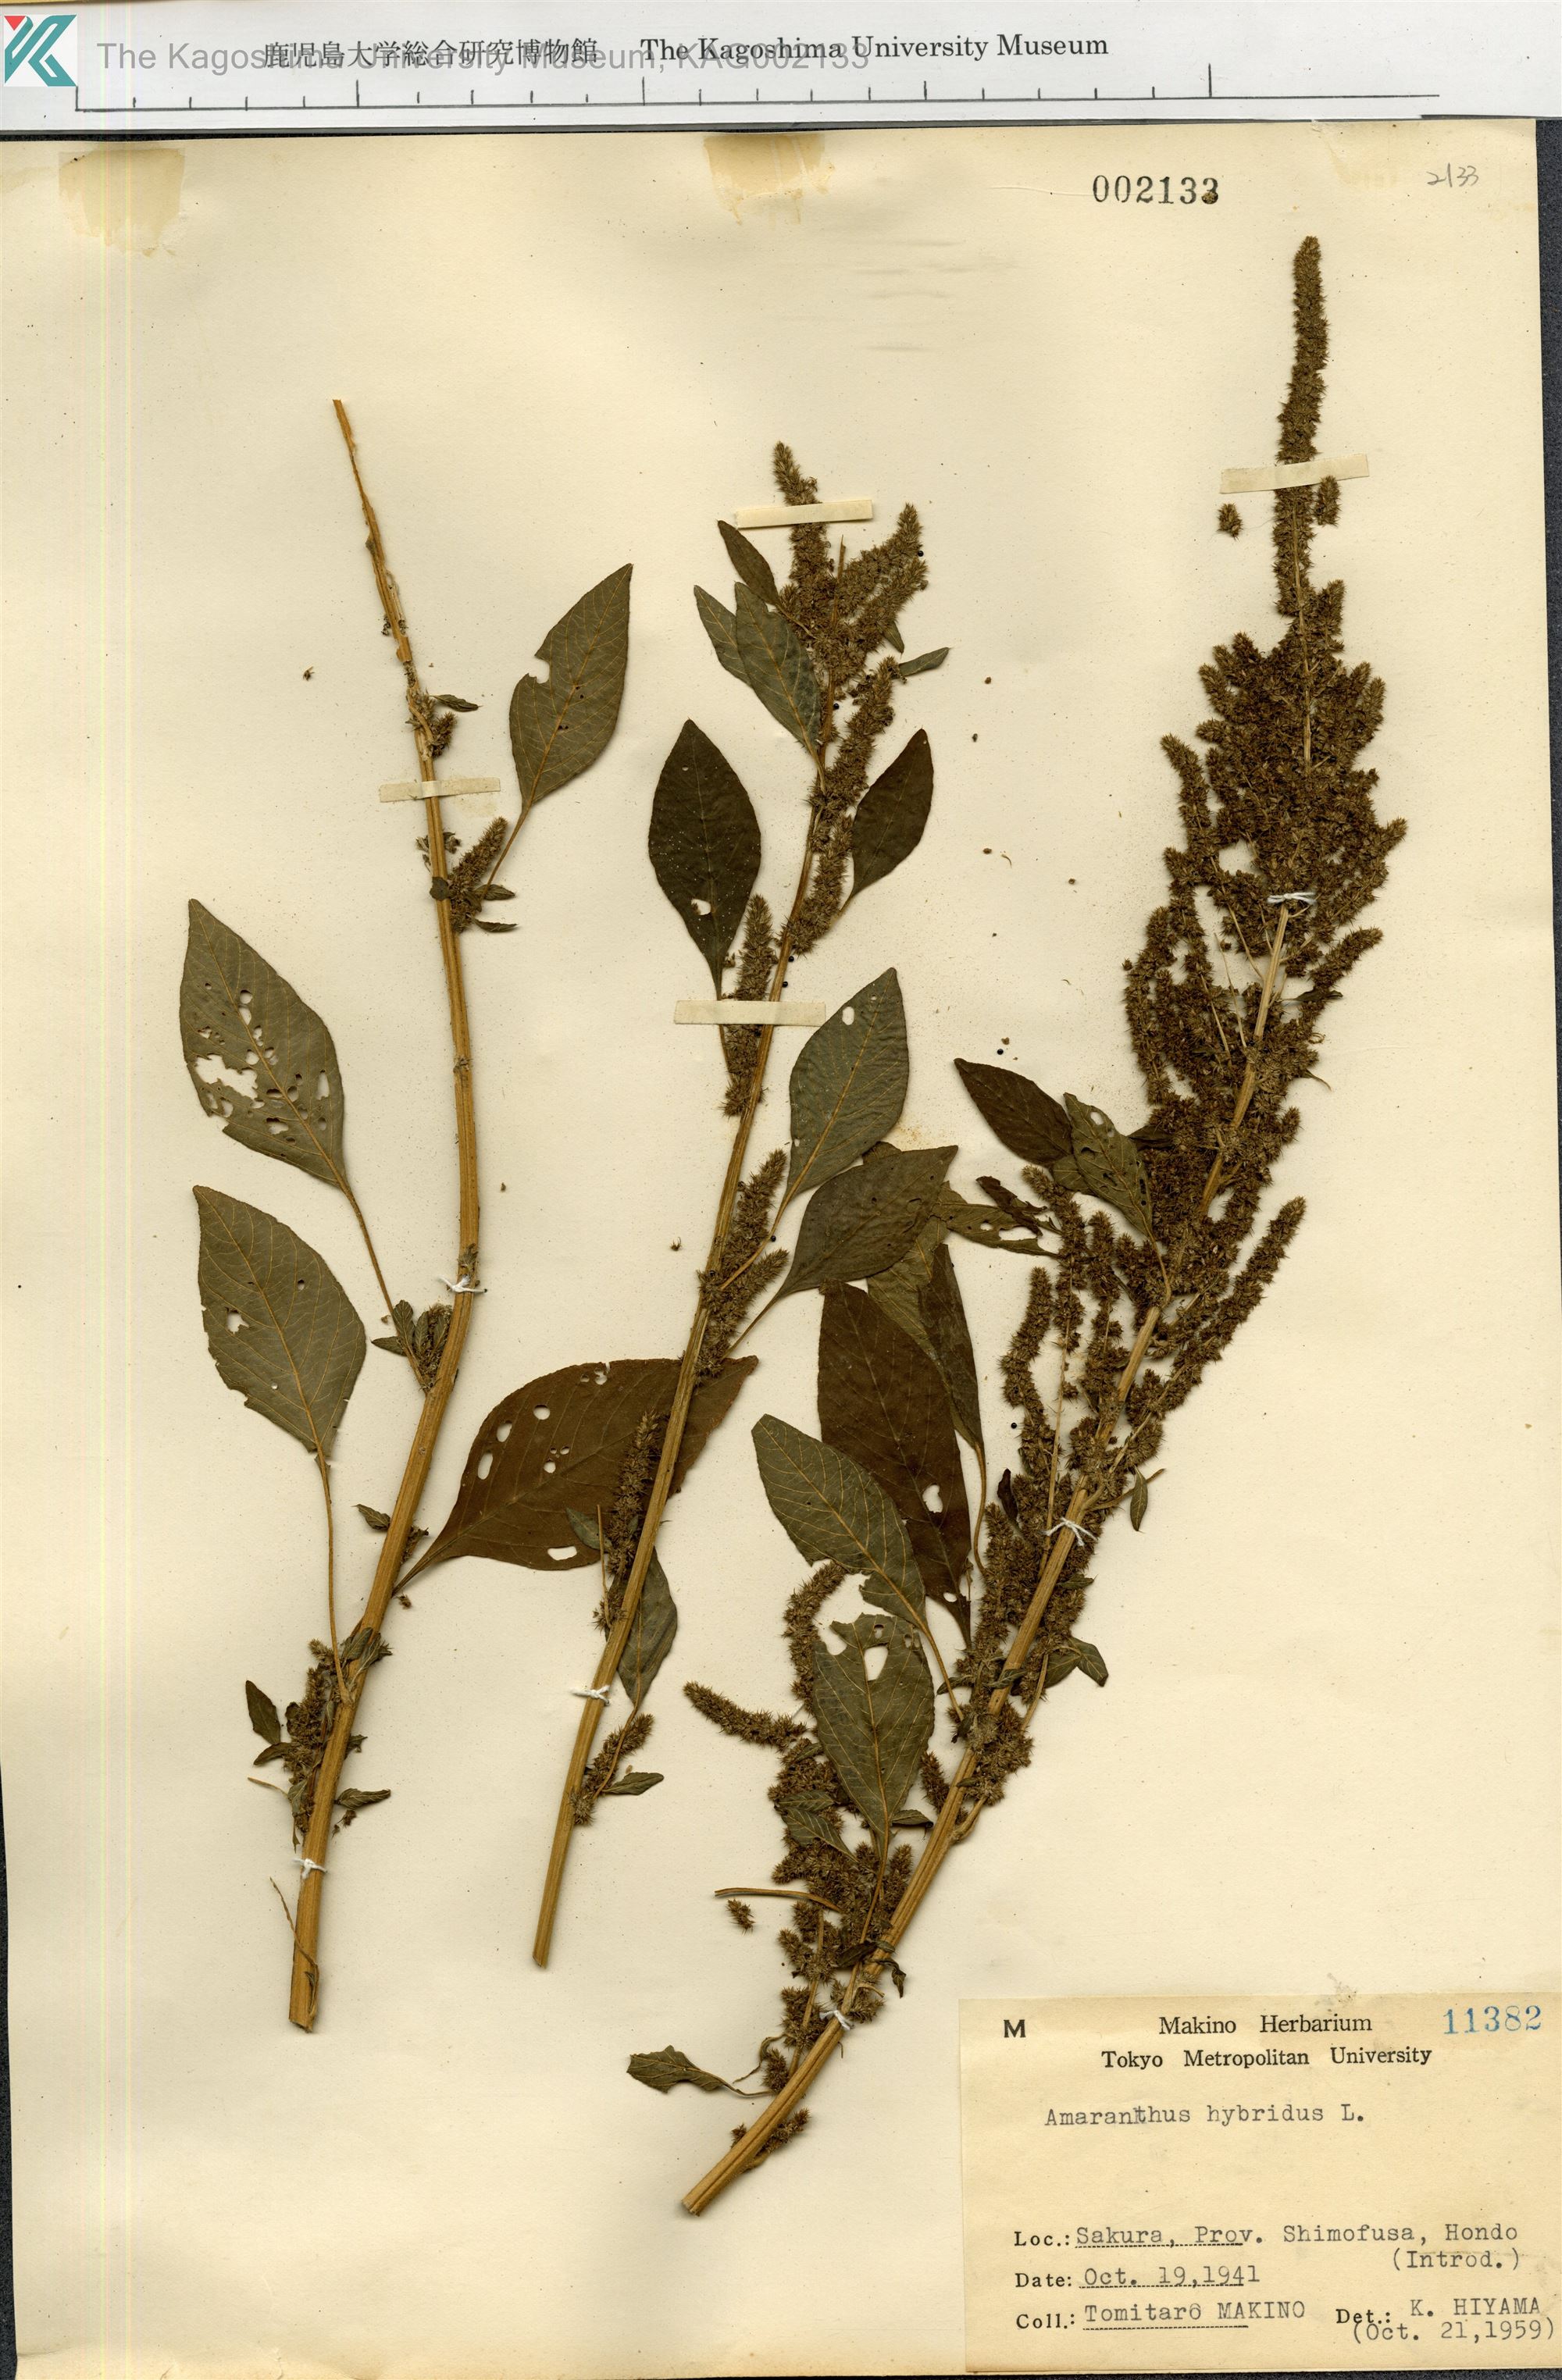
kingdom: Plantae
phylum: Tracheophyta
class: Magnoliopsida
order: Caryophyllales
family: Amaranthaceae
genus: Amaranthus
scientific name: Amaranthus hybridus
